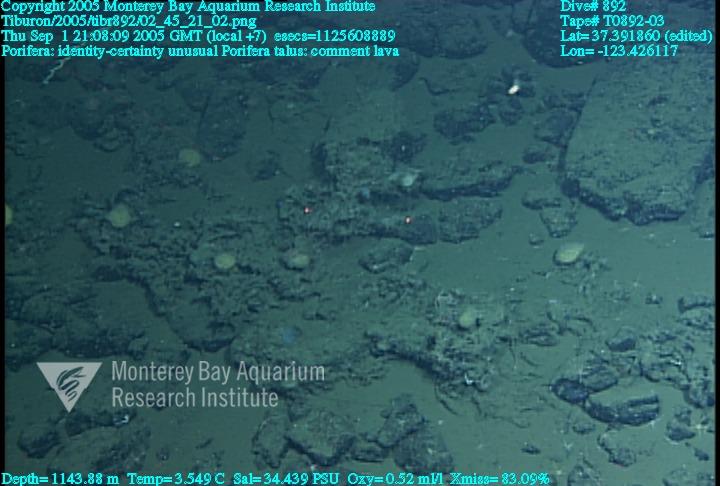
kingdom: Animalia
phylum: Porifera
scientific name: Porifera
